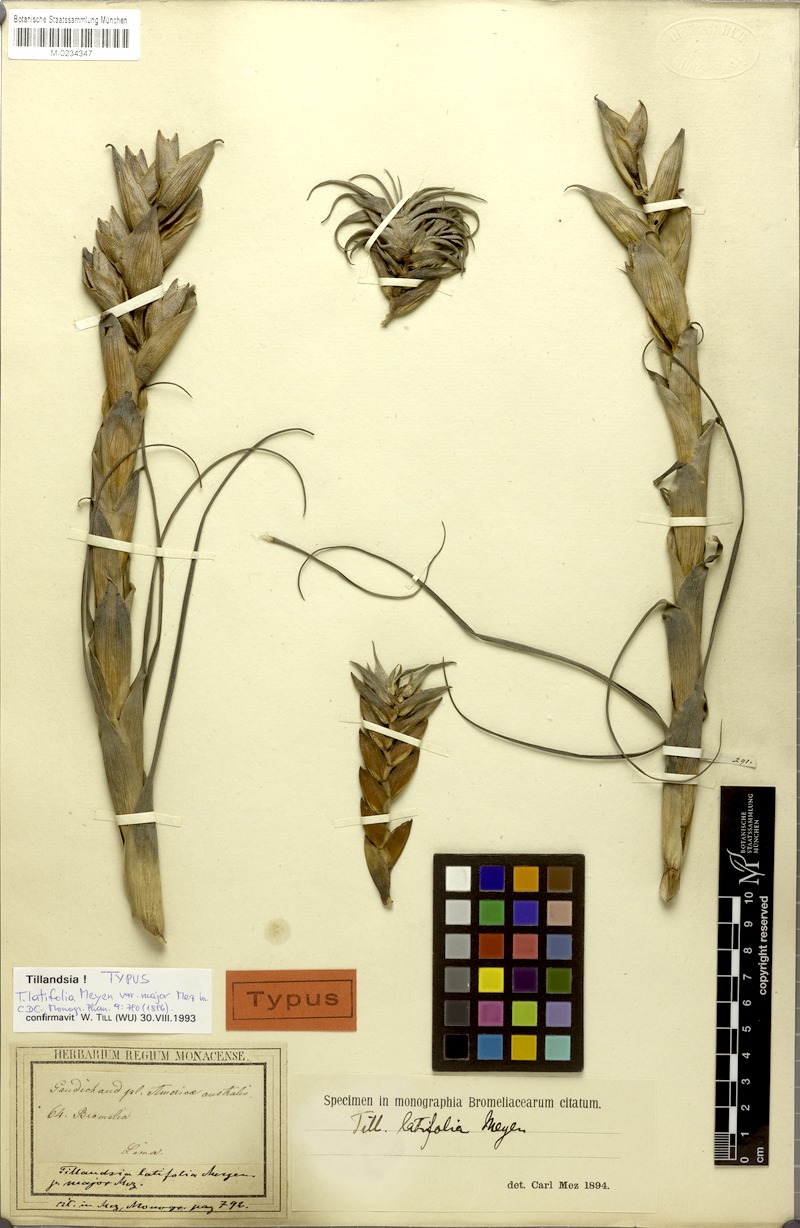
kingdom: Plantae
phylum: Tracheophyta
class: Liliopsida
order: Poales
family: Bromeliaceae
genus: Tillandsia
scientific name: Tillandsia latifolia
